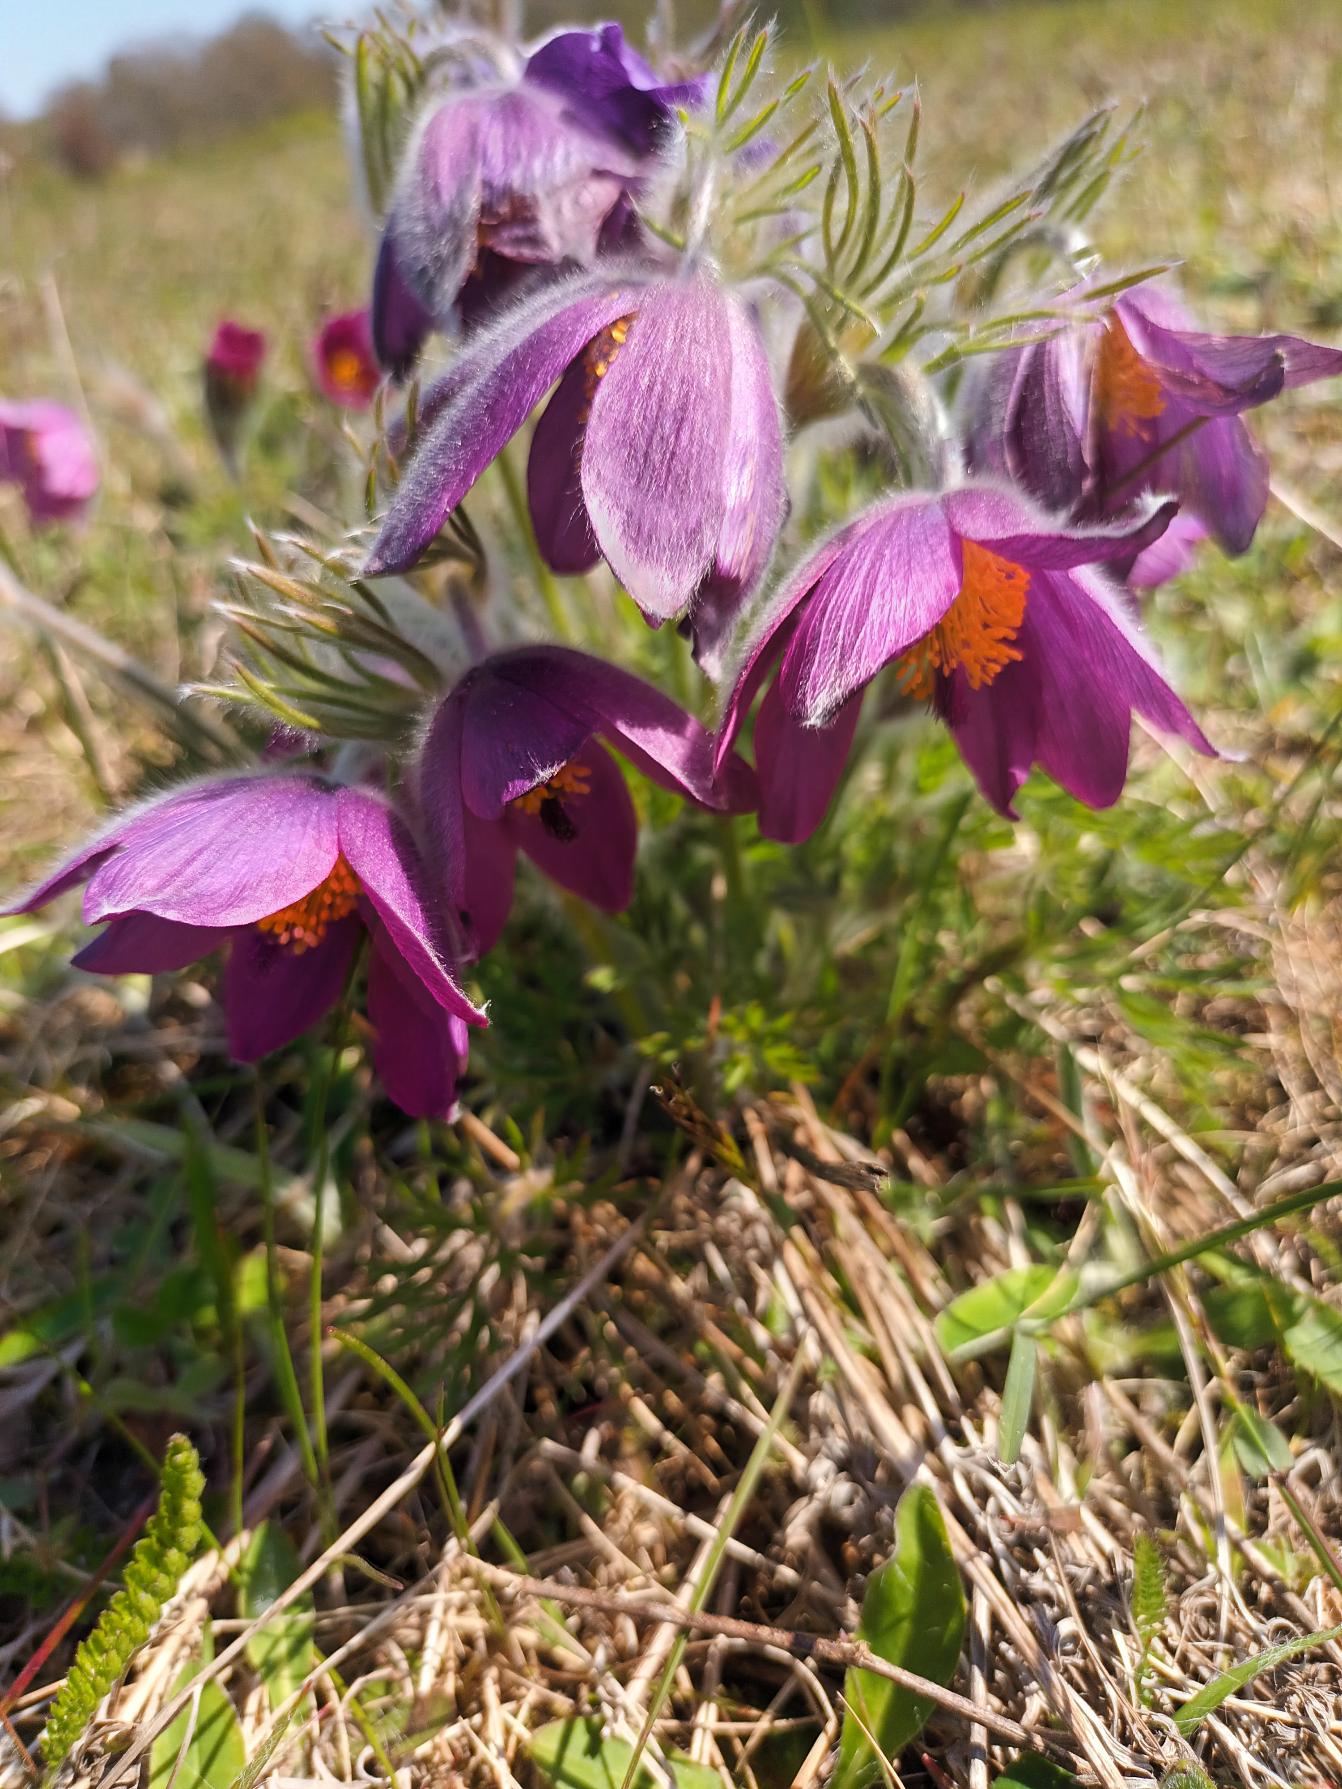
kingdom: Plantae
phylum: Tracheophyta
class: Magnoliopsida
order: Ranunculales
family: Ranunculaceae
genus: Pulsatilla
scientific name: Pulsatilla vulgaris
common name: Opret kobjælde
